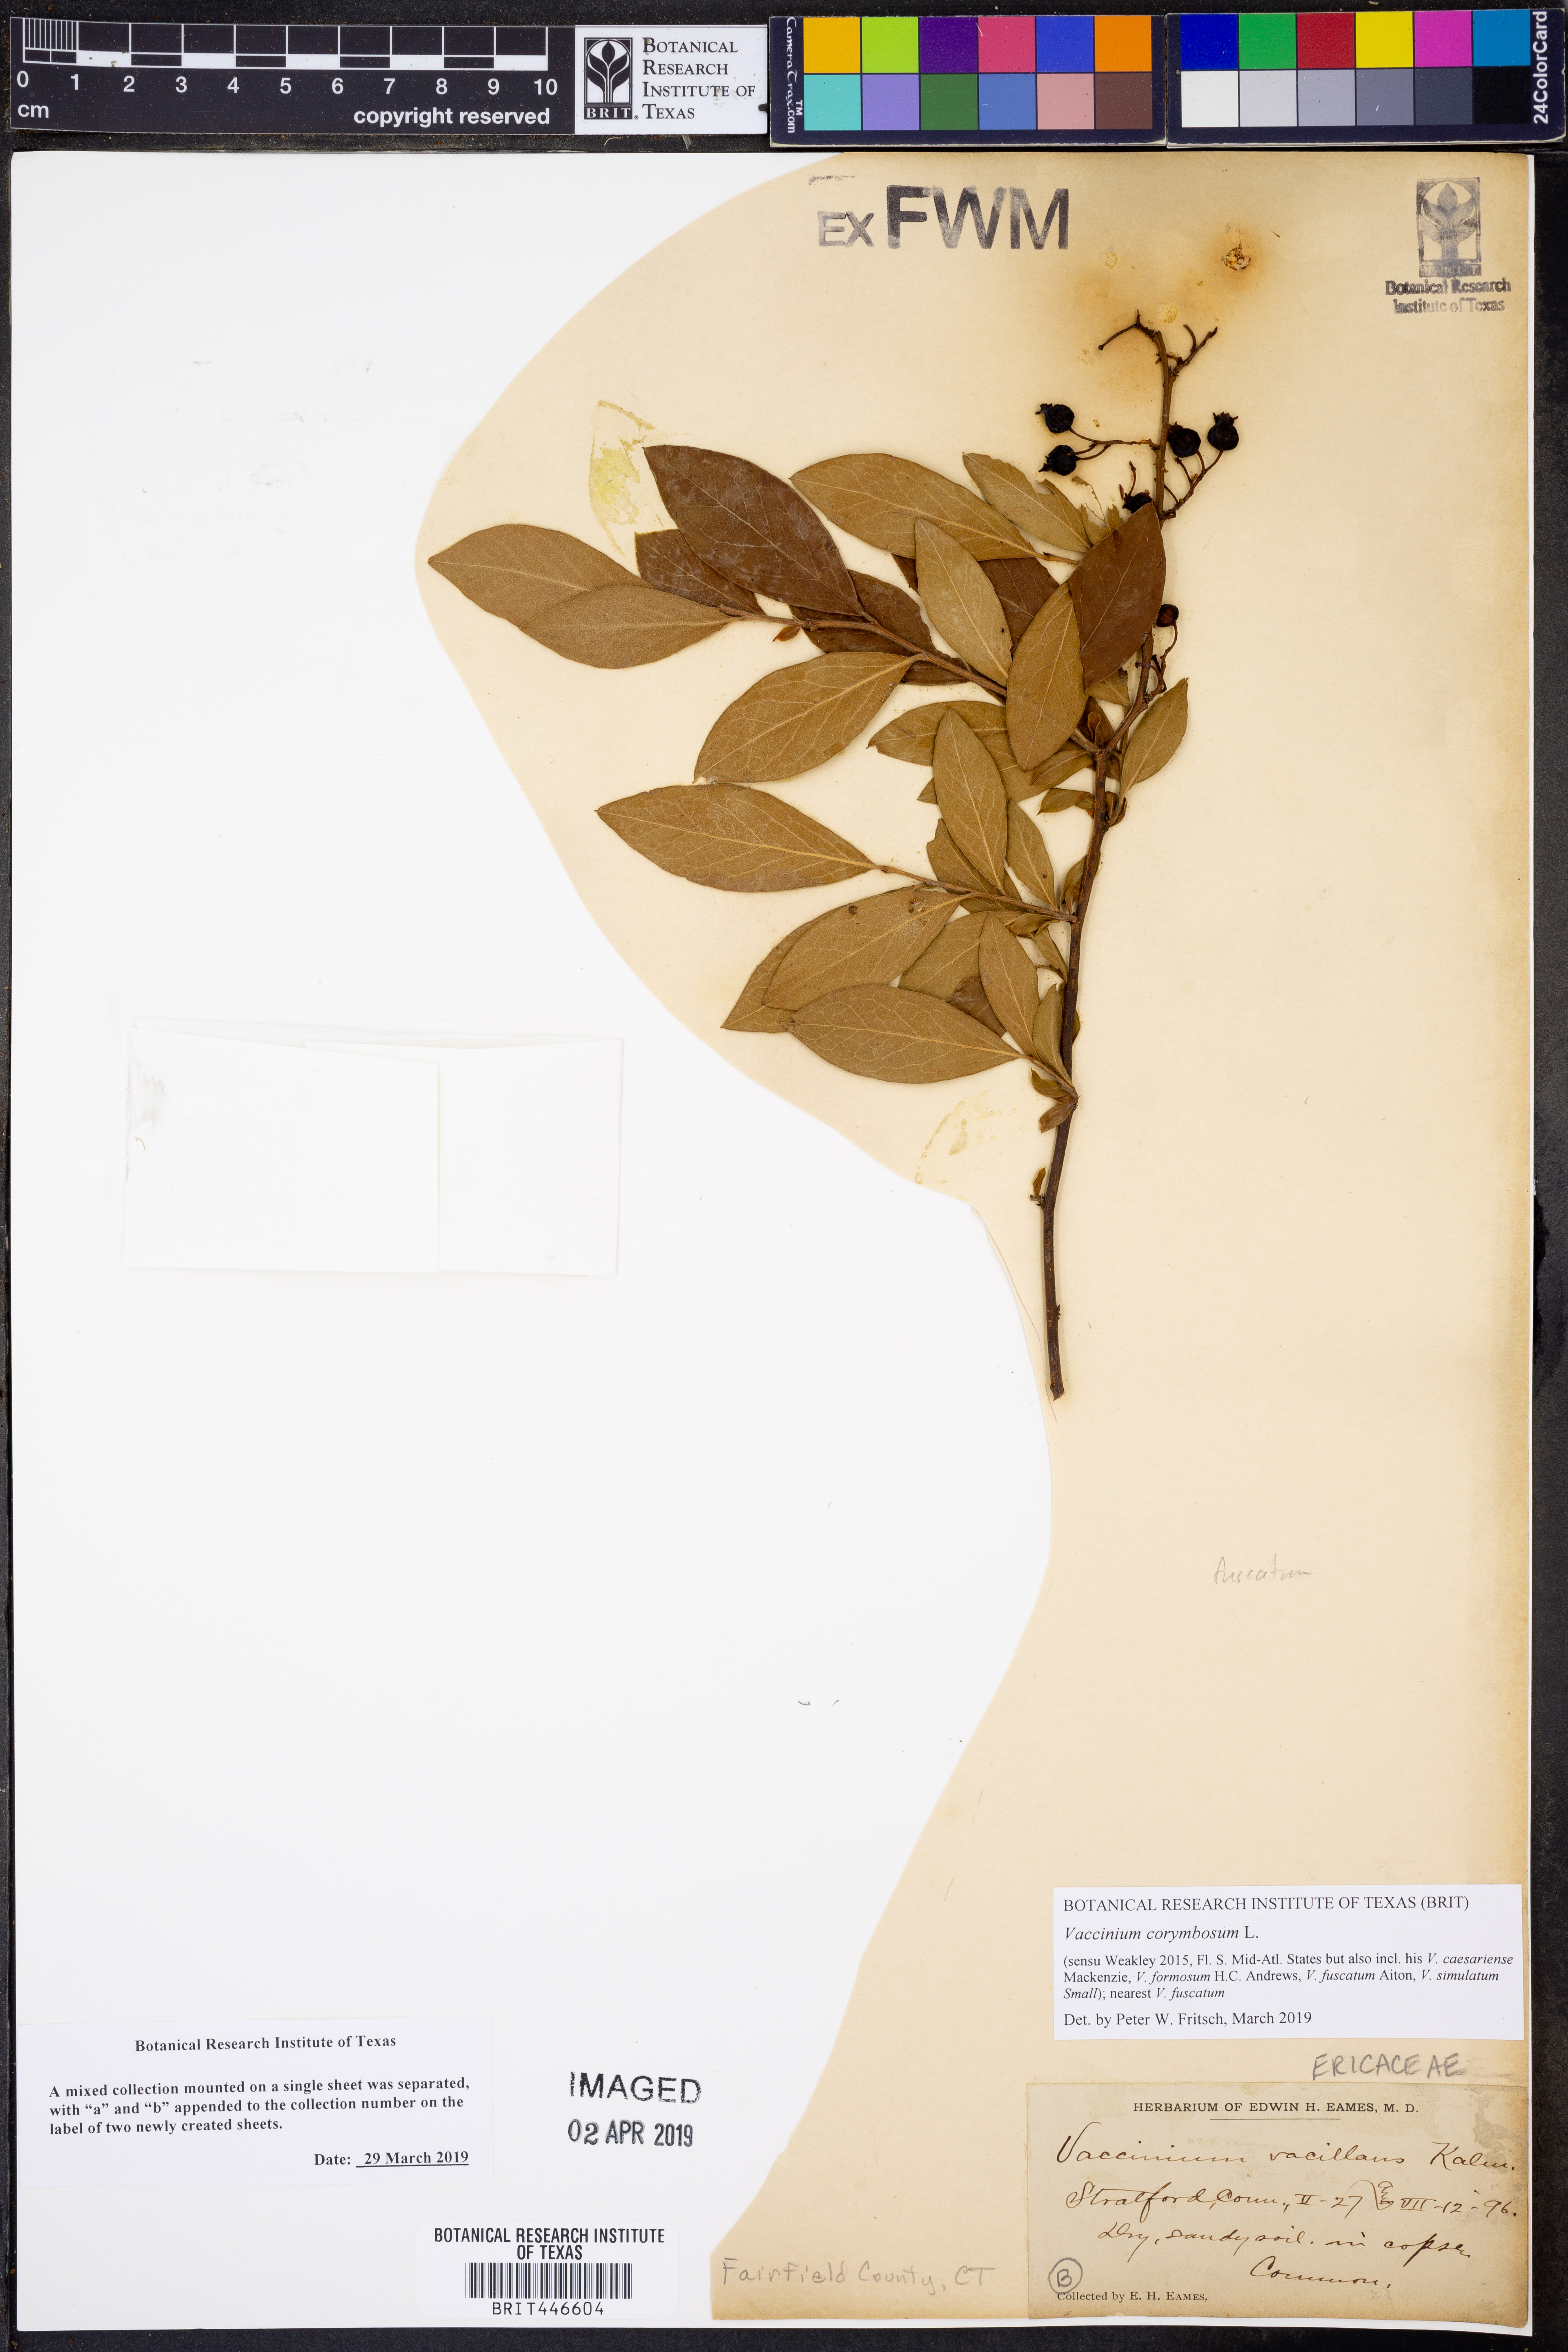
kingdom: Plantae
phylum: Tracheophyta
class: Magnoliopsida
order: Ericales
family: Ericaceae
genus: Vaccinium
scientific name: Vaccinium corymbosum
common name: Blueberry
